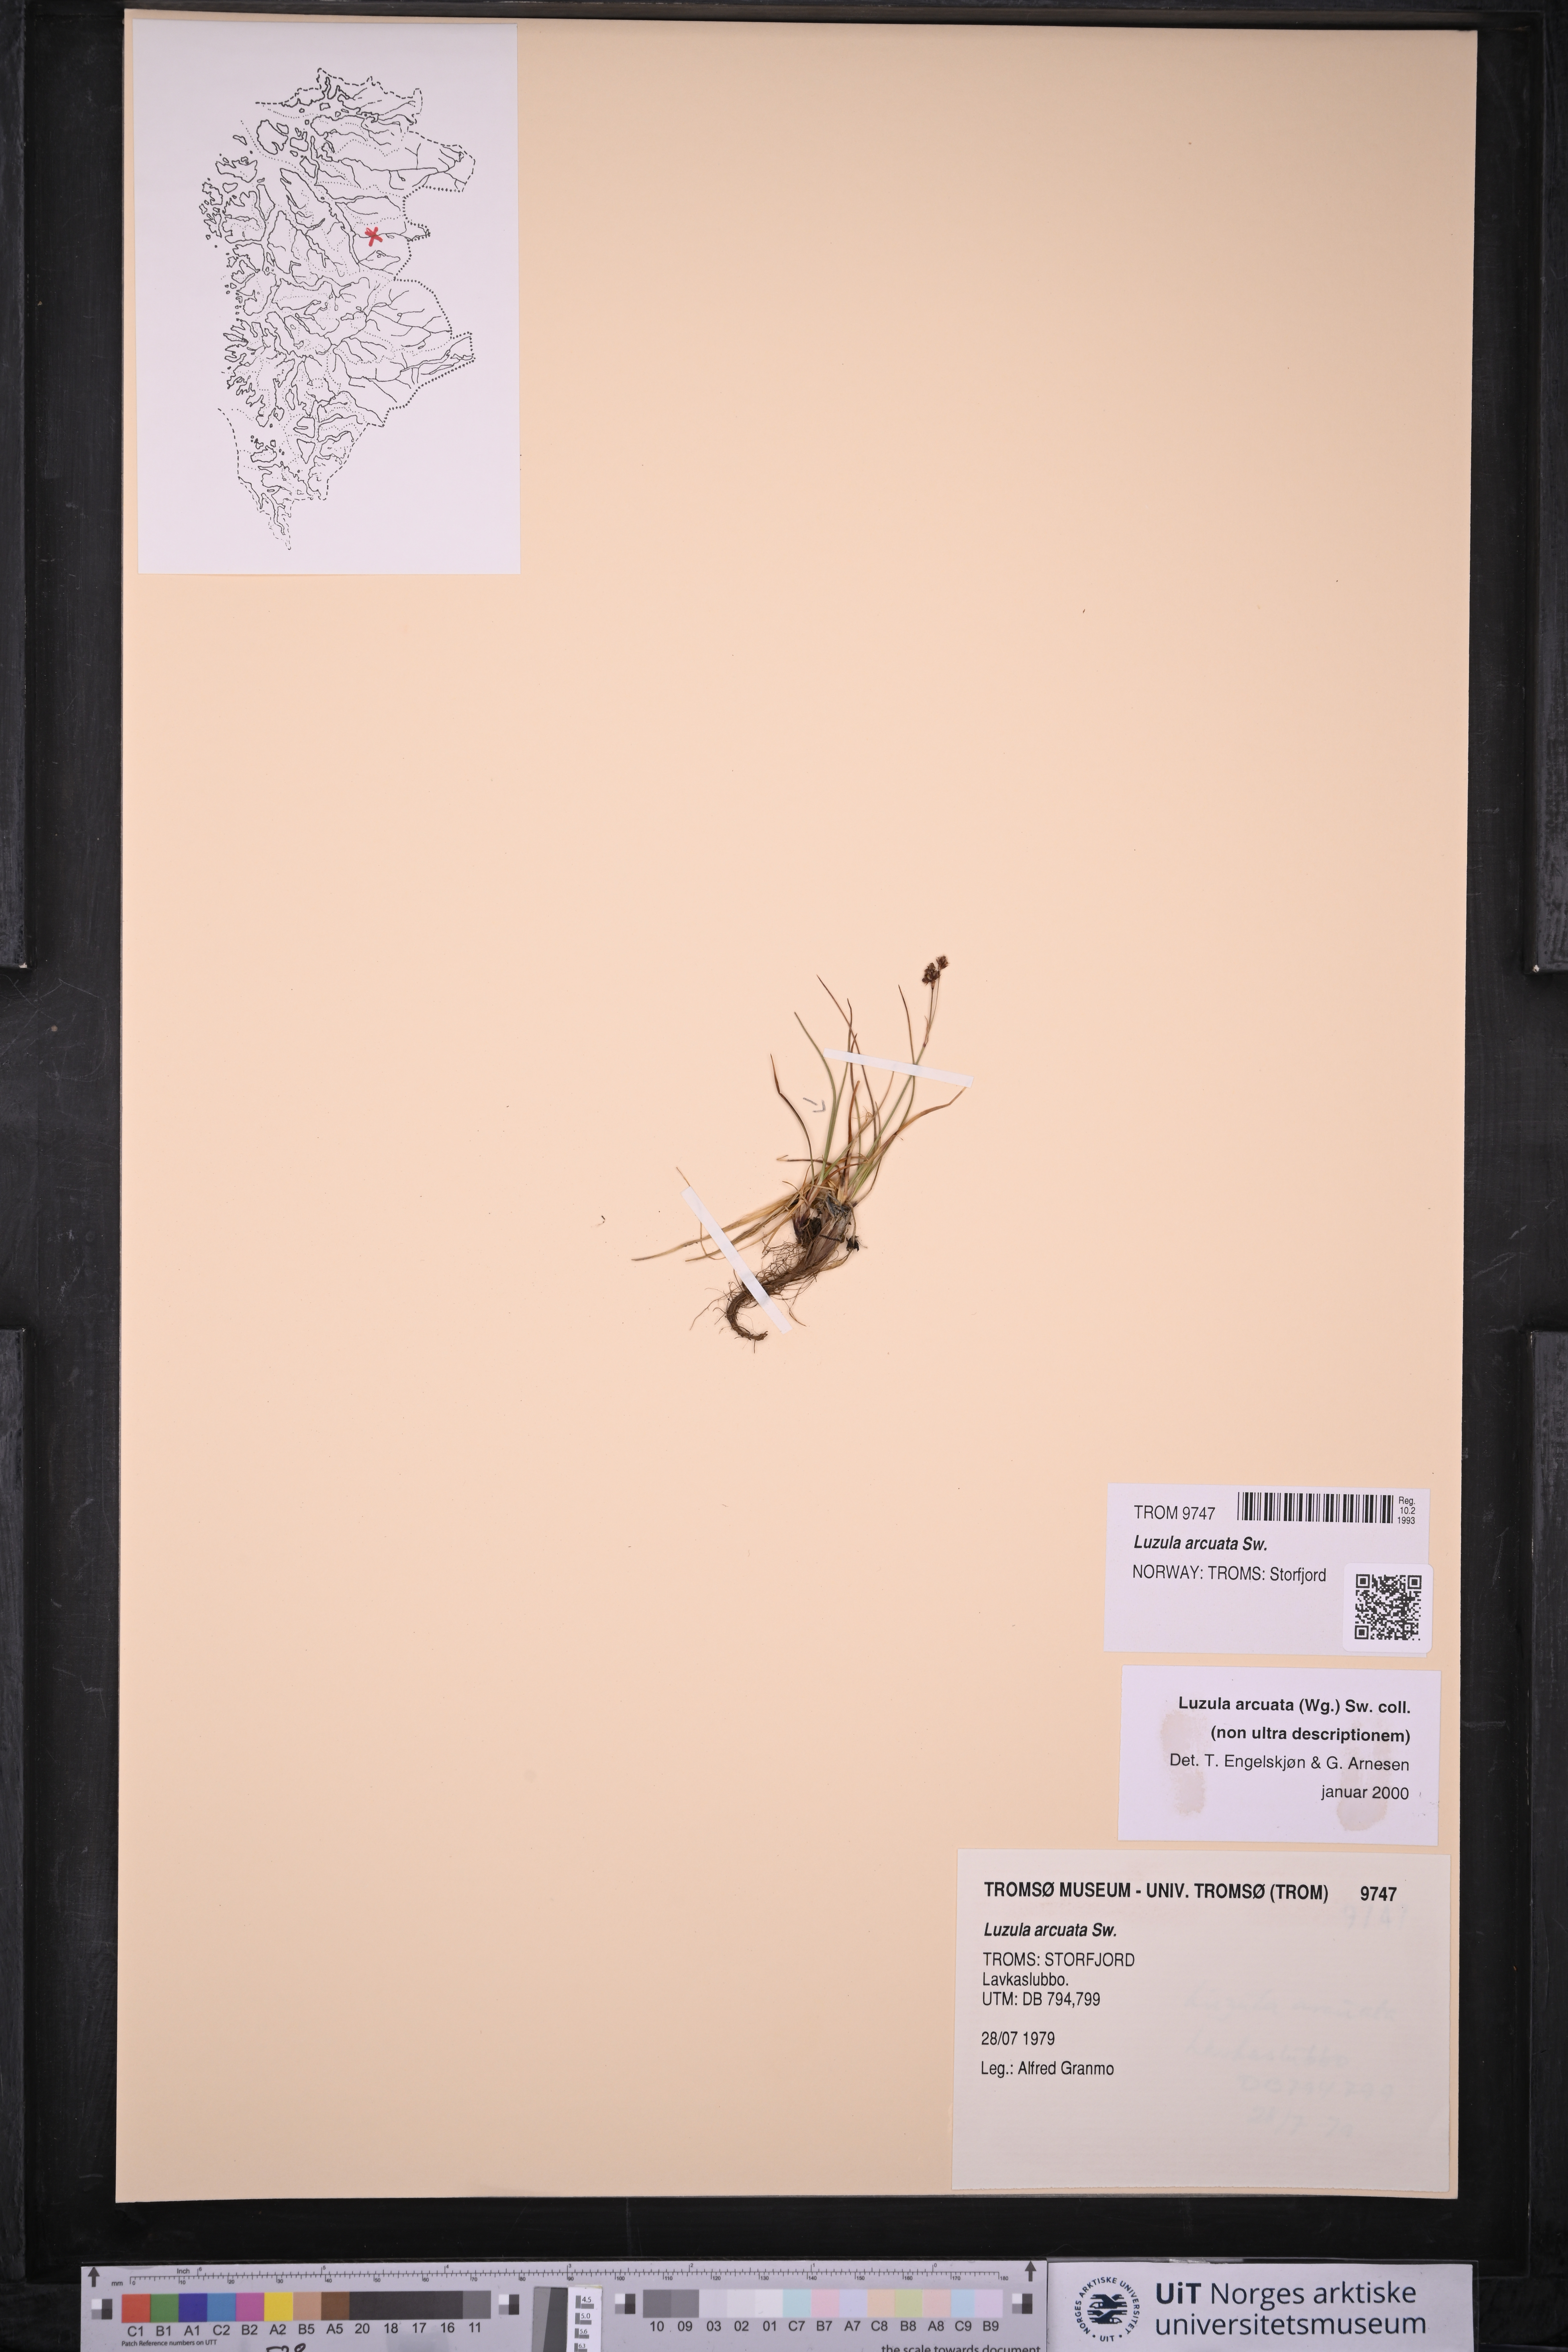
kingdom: Plantae
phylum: Tracheophyta
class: Liliopsida
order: Poales
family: Juncaceae
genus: Luzula
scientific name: Luzula arcuata
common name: Curved wood-rush
